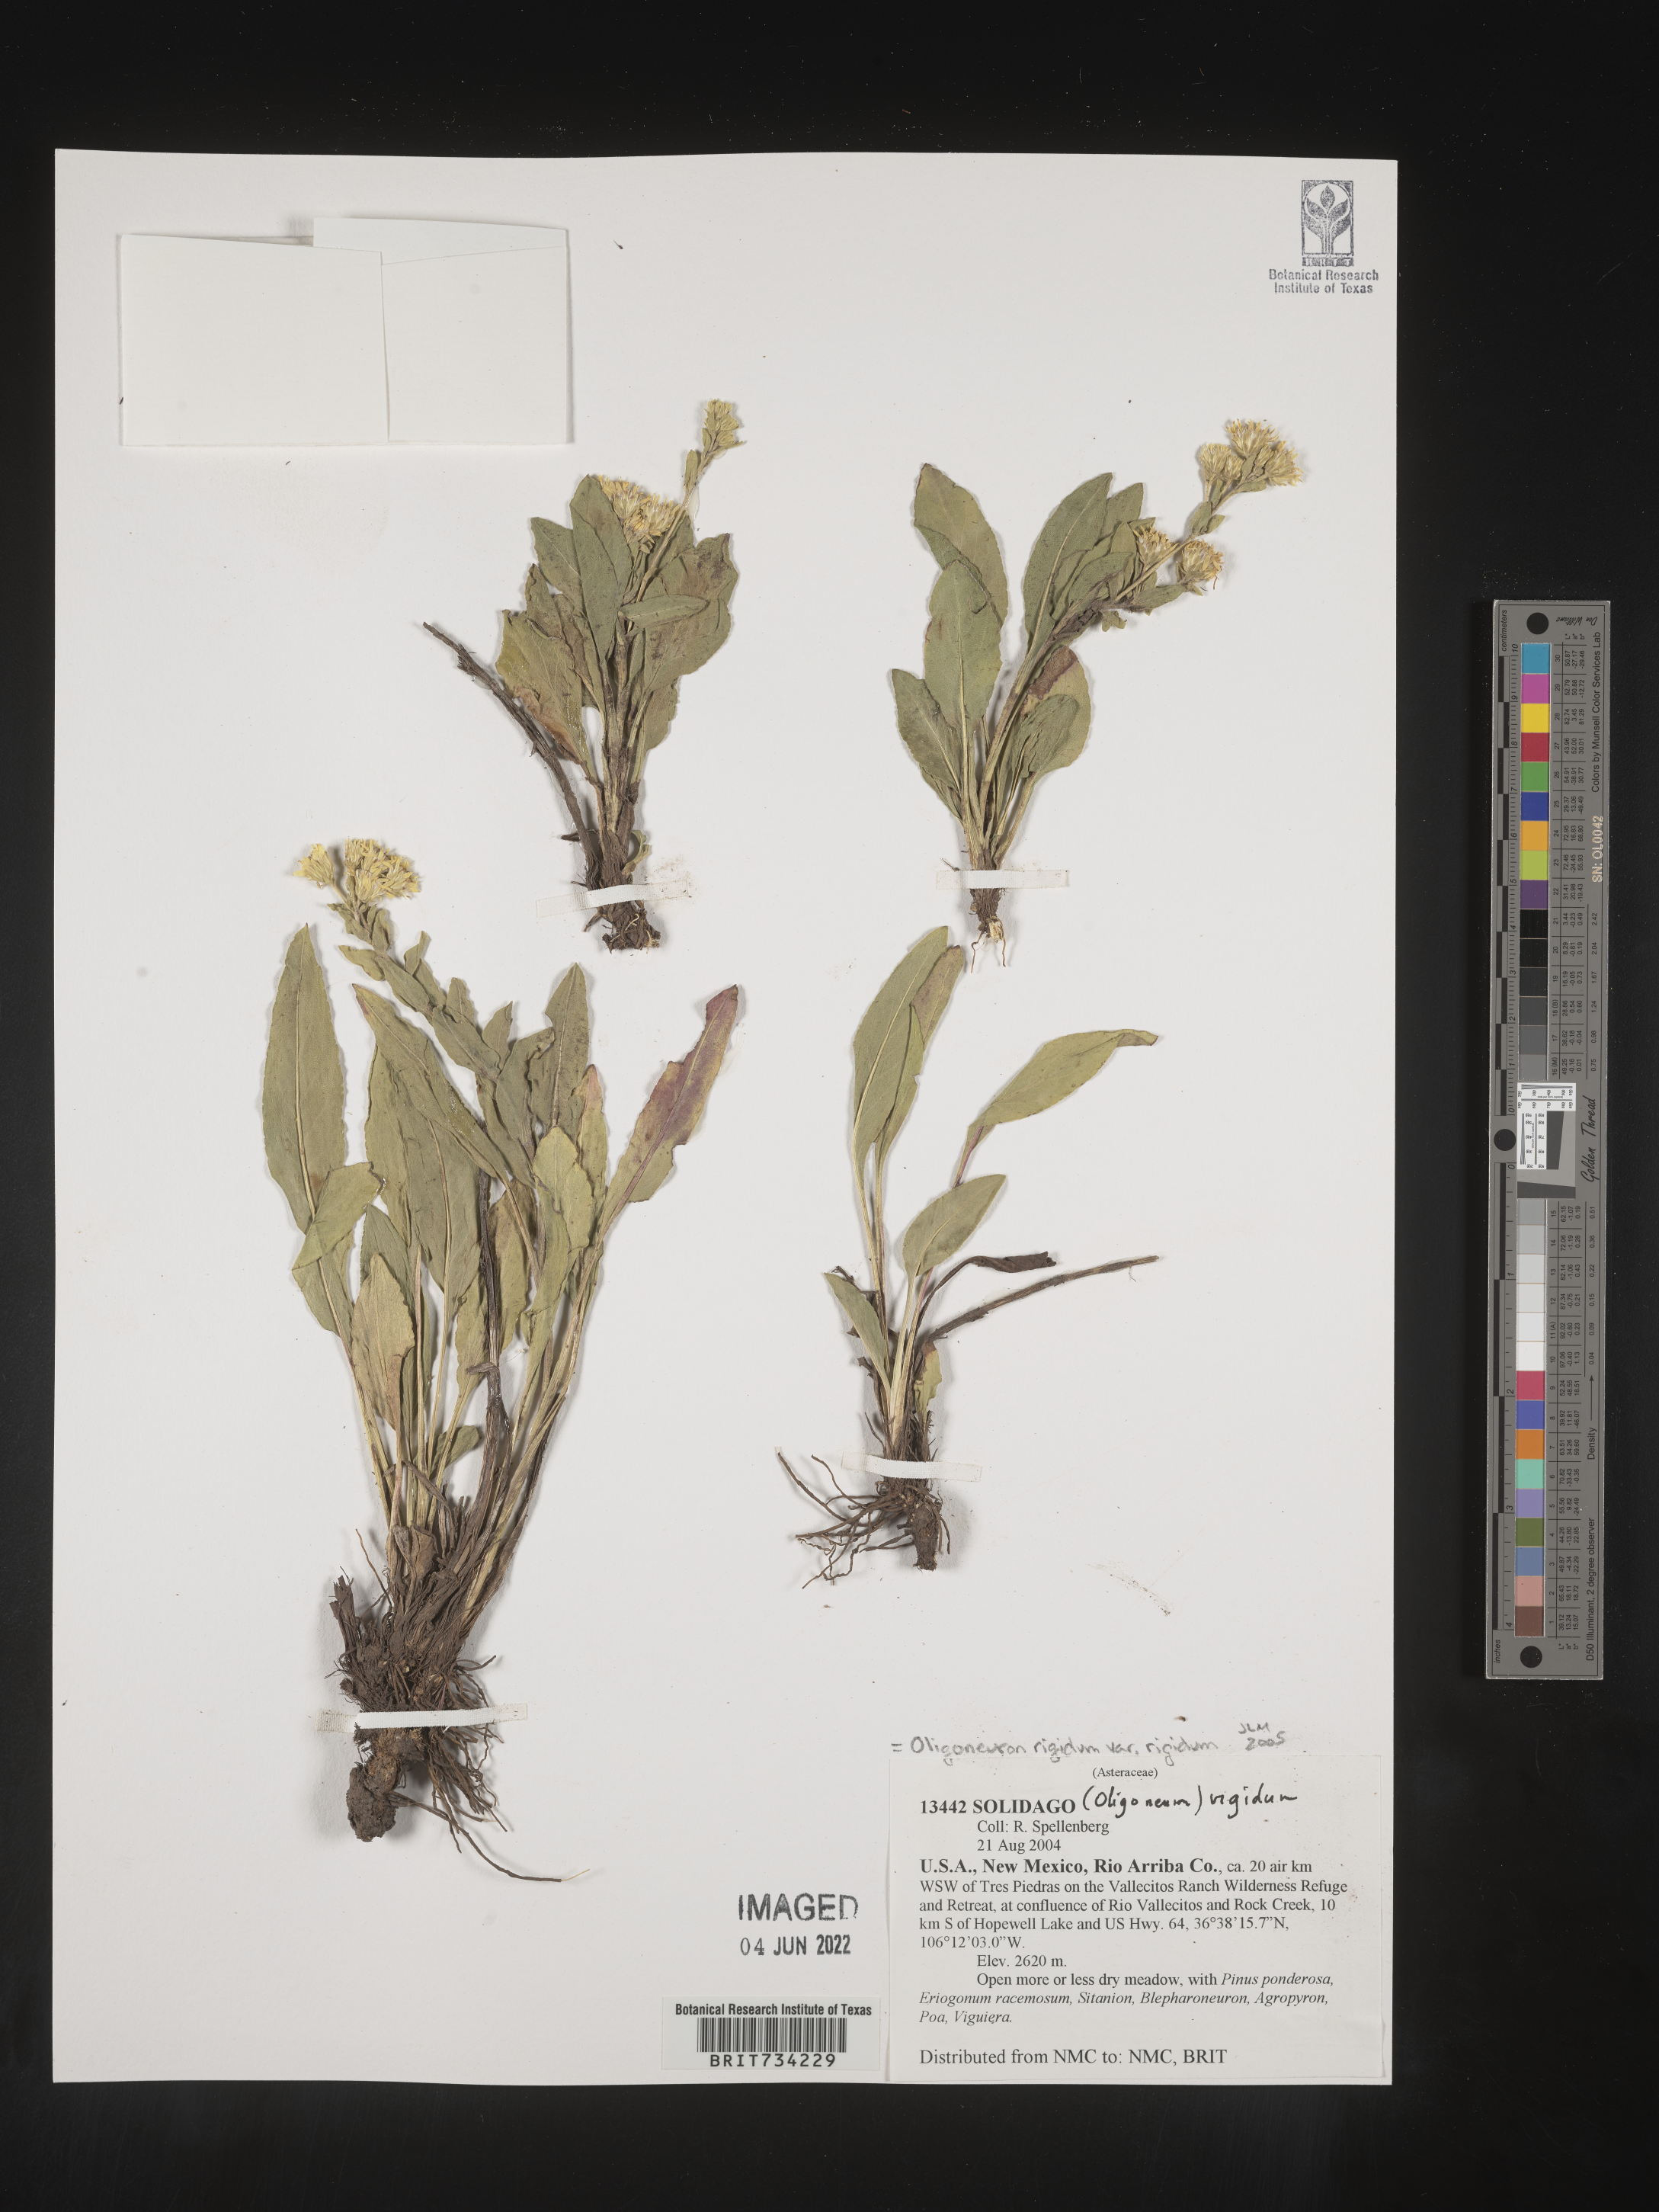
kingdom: Plantae
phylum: Tracheophyta
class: Magnoliopsida
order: Asterales
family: Asteraceae
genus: Solidago
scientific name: Solidago rigida
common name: Rigid goldenrod
